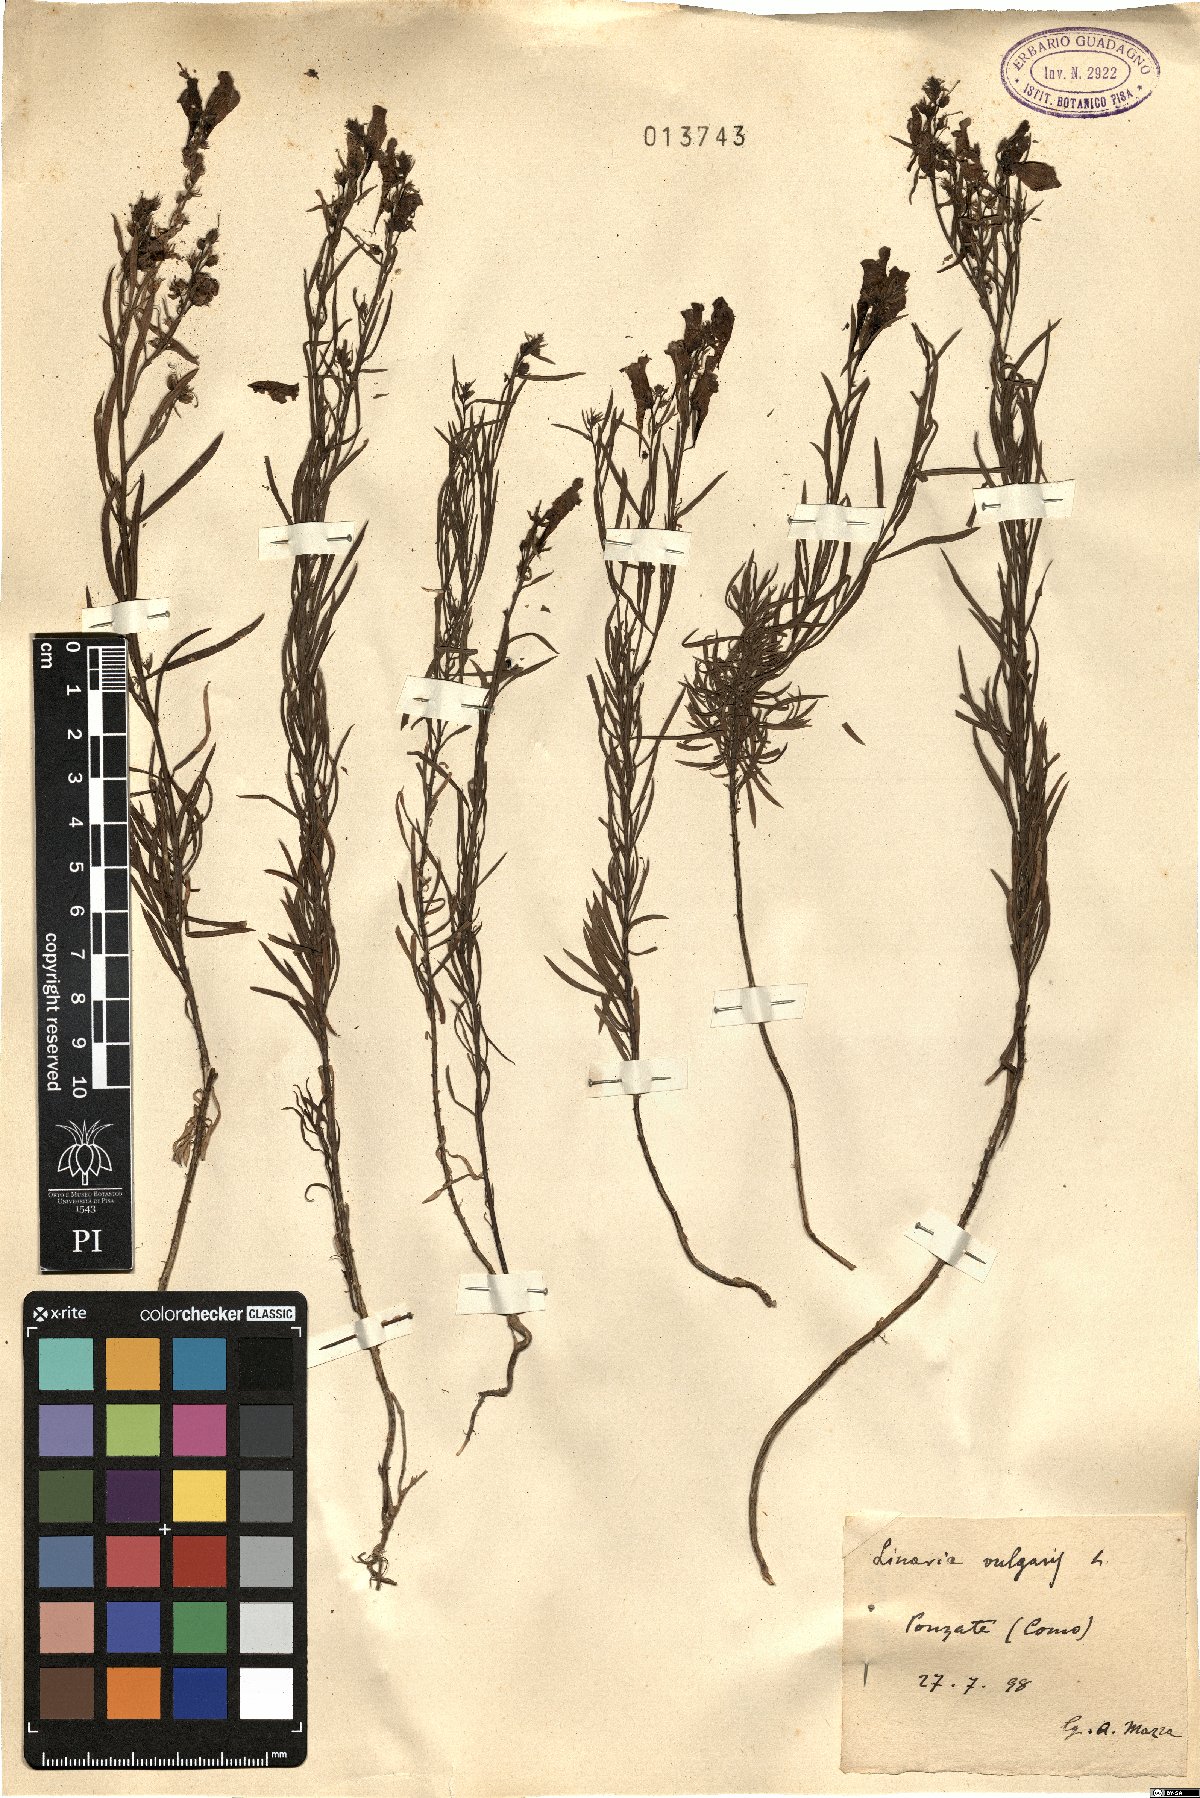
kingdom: Plantae
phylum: Tracheophyta
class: Magnoliopsida
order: Lamiales
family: Plantaginaceae
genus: Linaria
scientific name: Linaria vulgaris
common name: Butter and eggs
